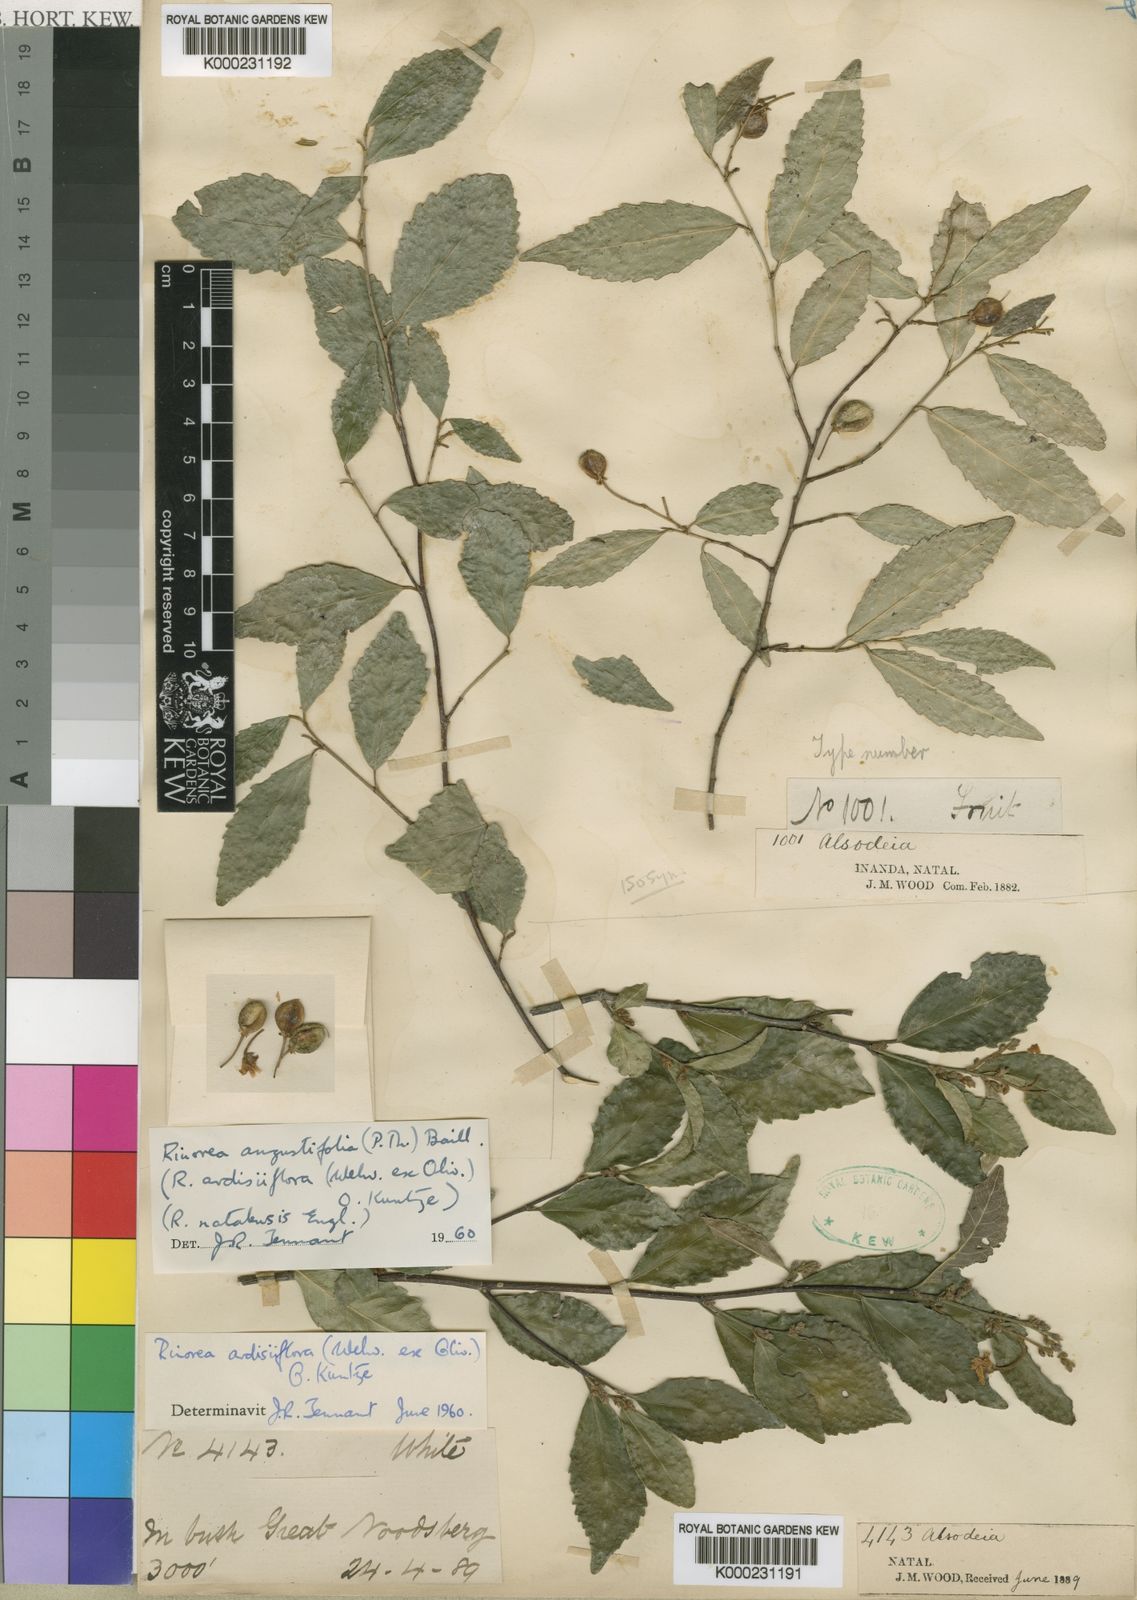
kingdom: Plantae
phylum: Tracheophyta
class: Magnoliopsida
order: Malpighiales
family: Violaceae
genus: Rinorea
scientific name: Rinorea angustifolia
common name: White violet-bush
